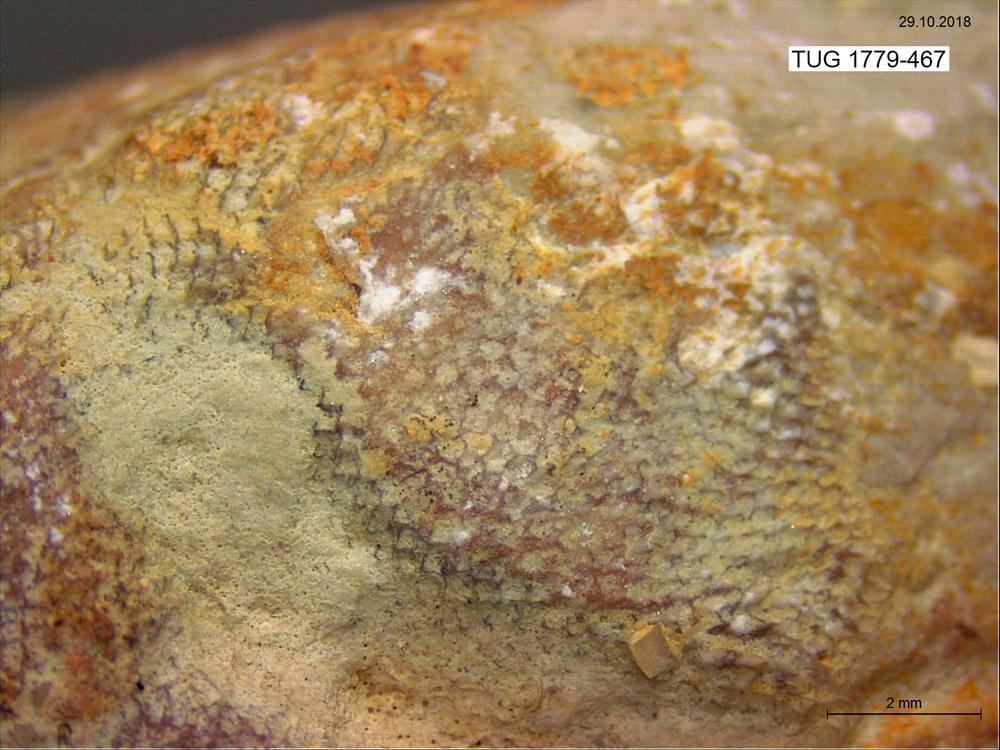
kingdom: Animalia
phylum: Bryozoa
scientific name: Bryozoa
